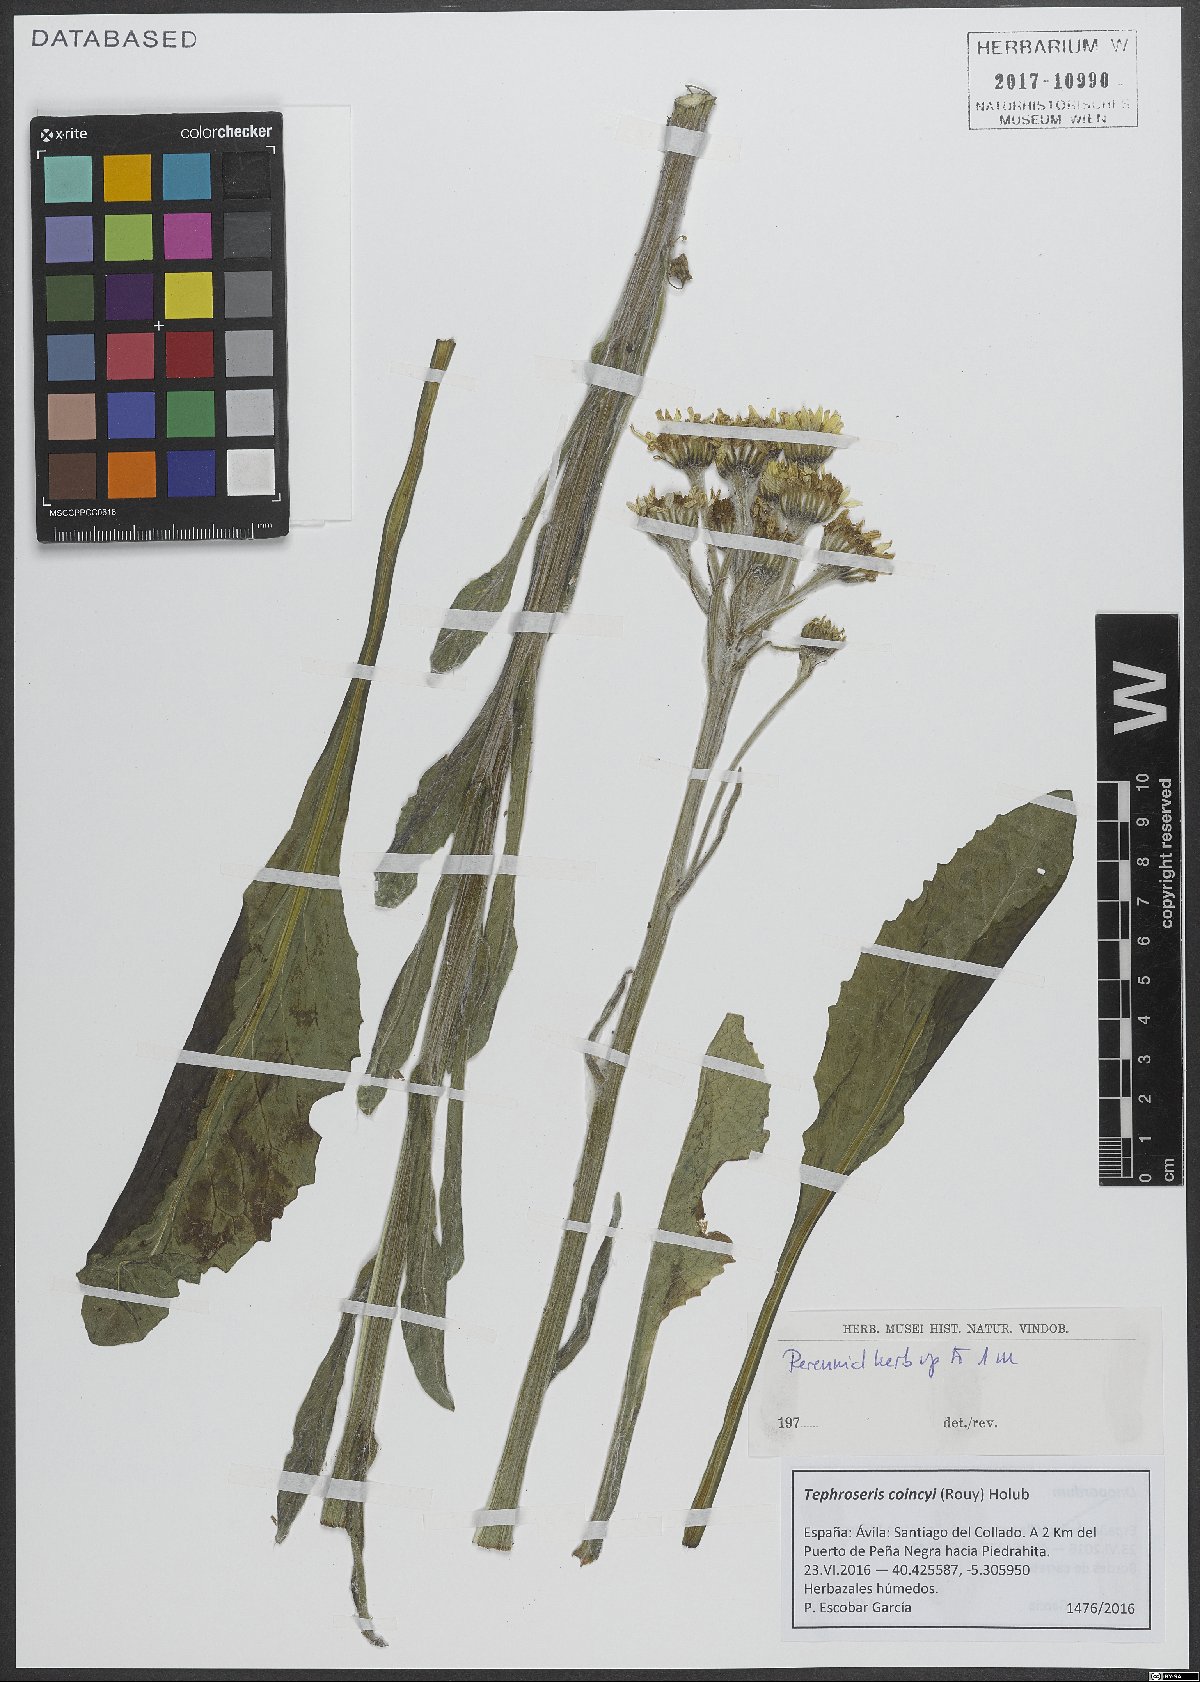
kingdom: Plantae
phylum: Tracheophyta
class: Magnoliopsida
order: Asterales
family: Asteraceae
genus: Tephroseris
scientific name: Tephroseris elodes
